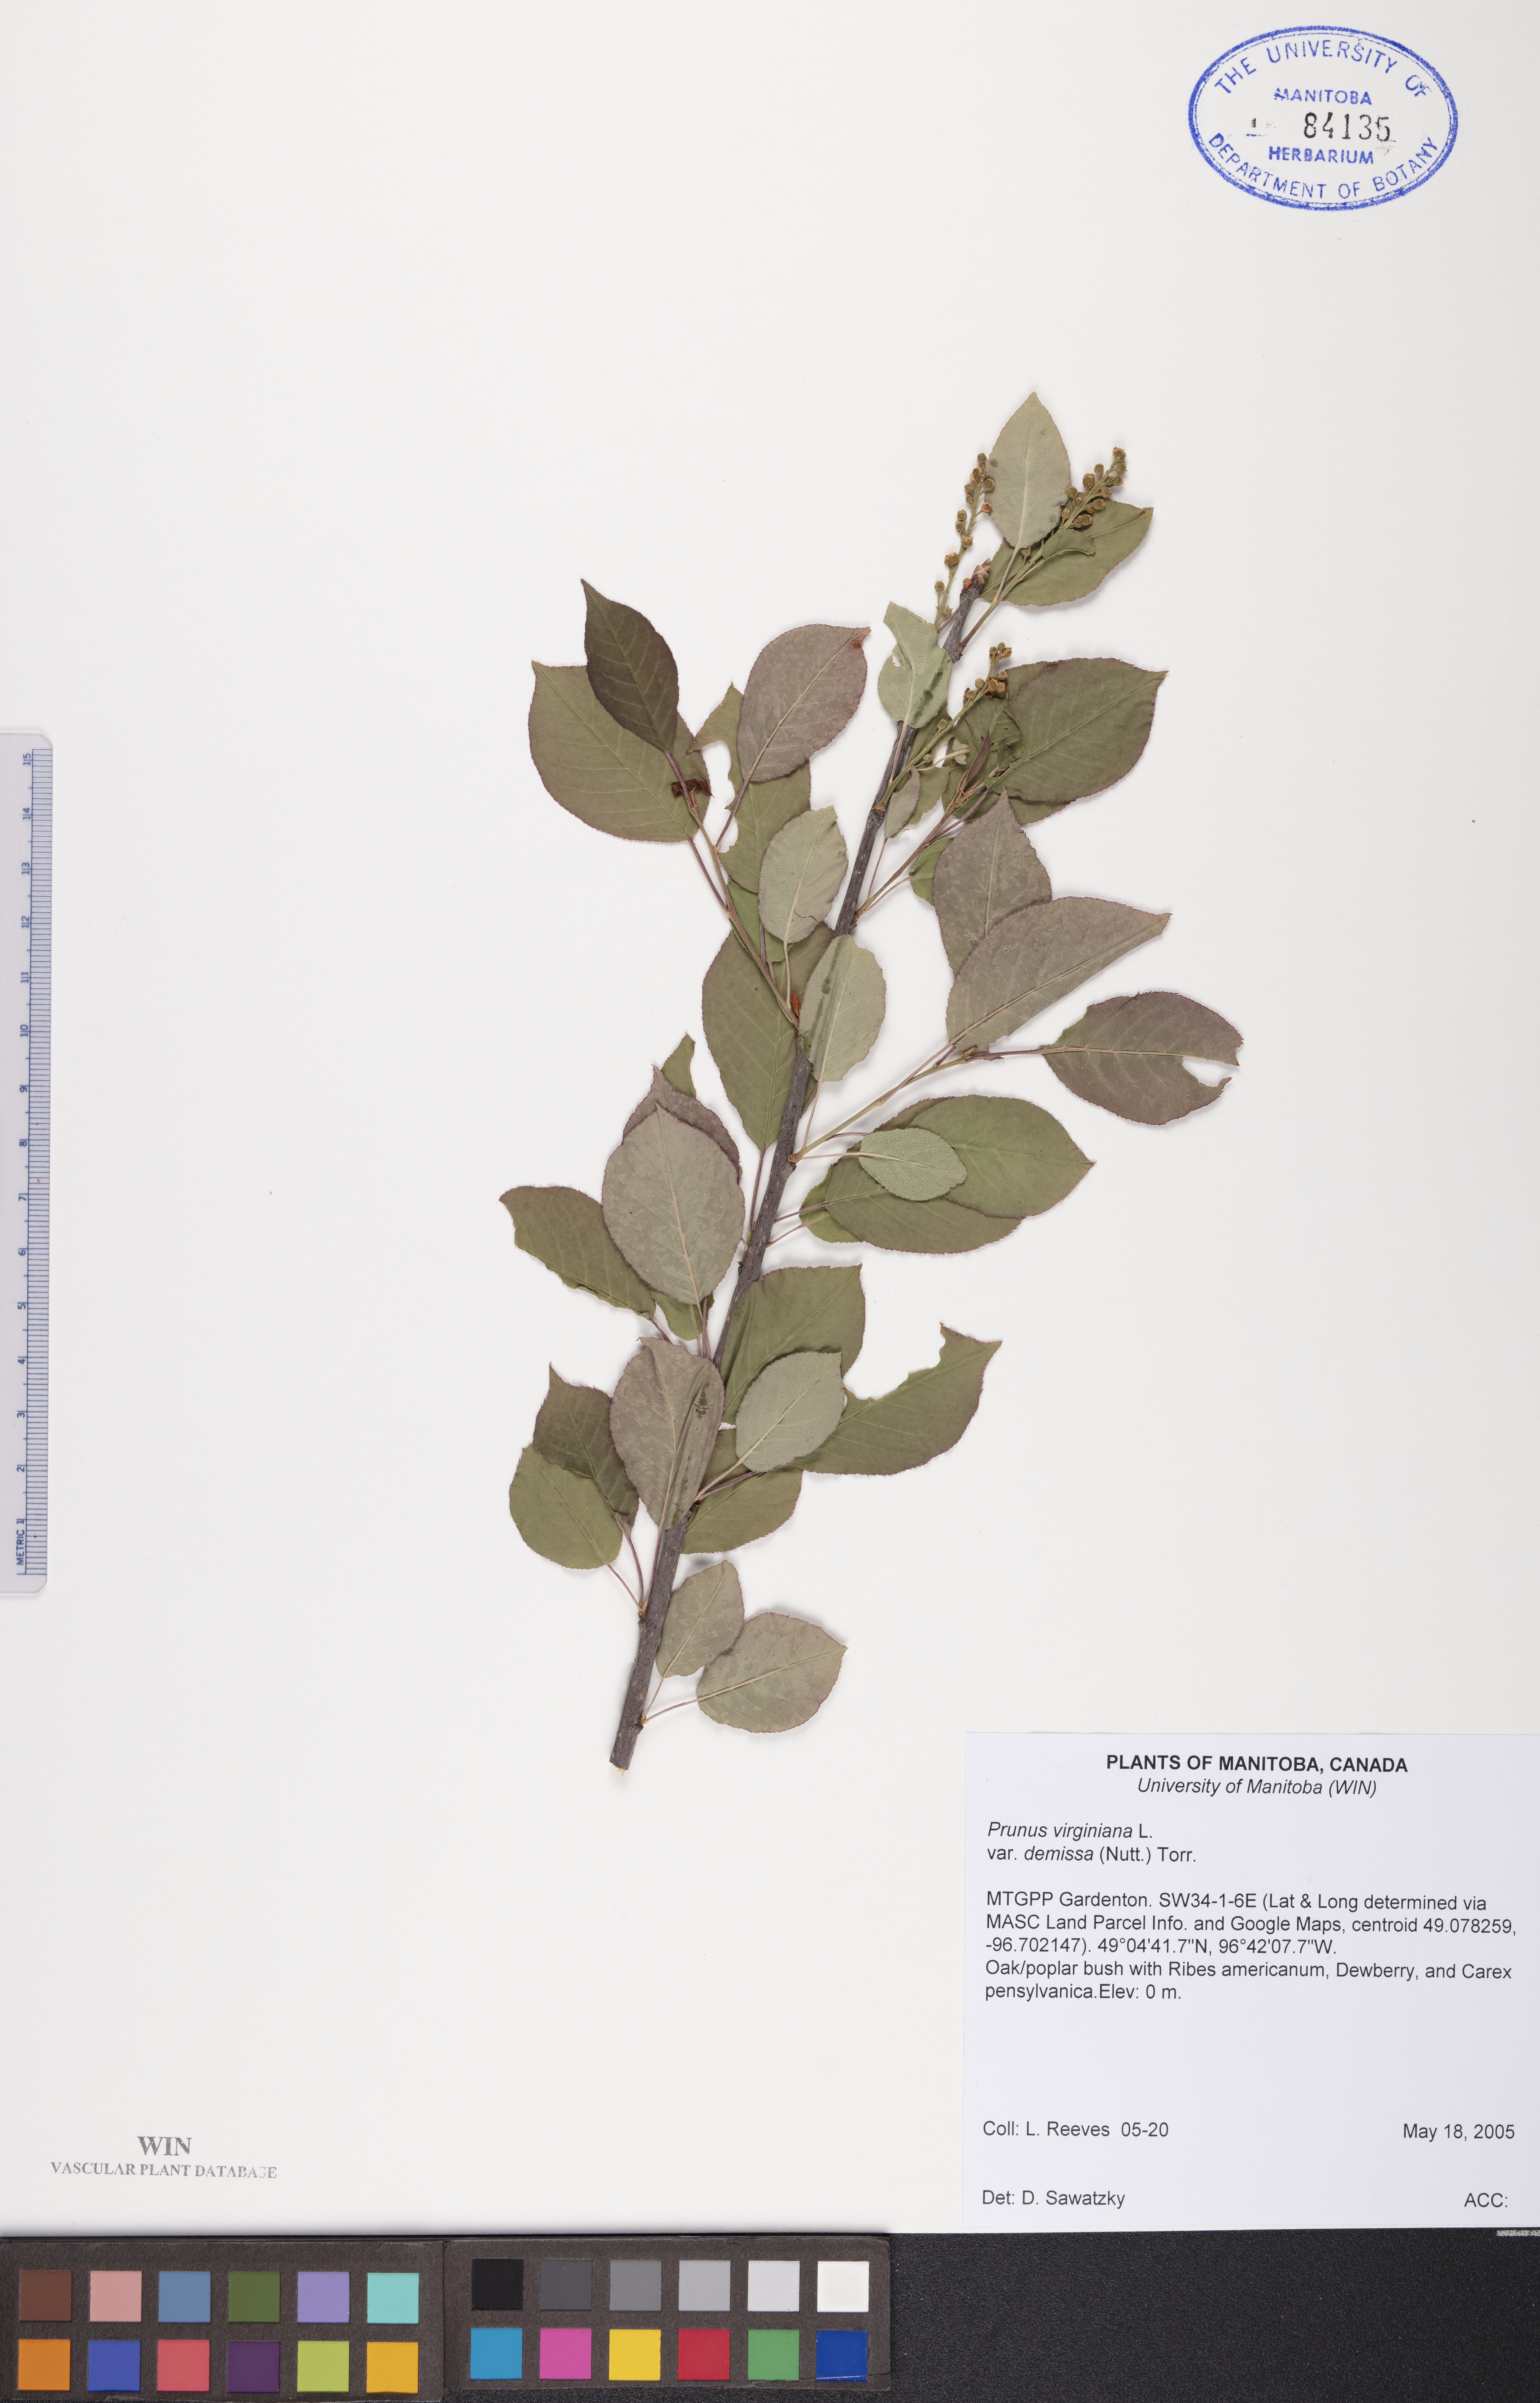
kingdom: Plantae
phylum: Tracheophyta
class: Magnoliopsida
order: Rosales
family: Rosaceae
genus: Prunus
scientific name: Prunus virginiana
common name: Chokecherry
